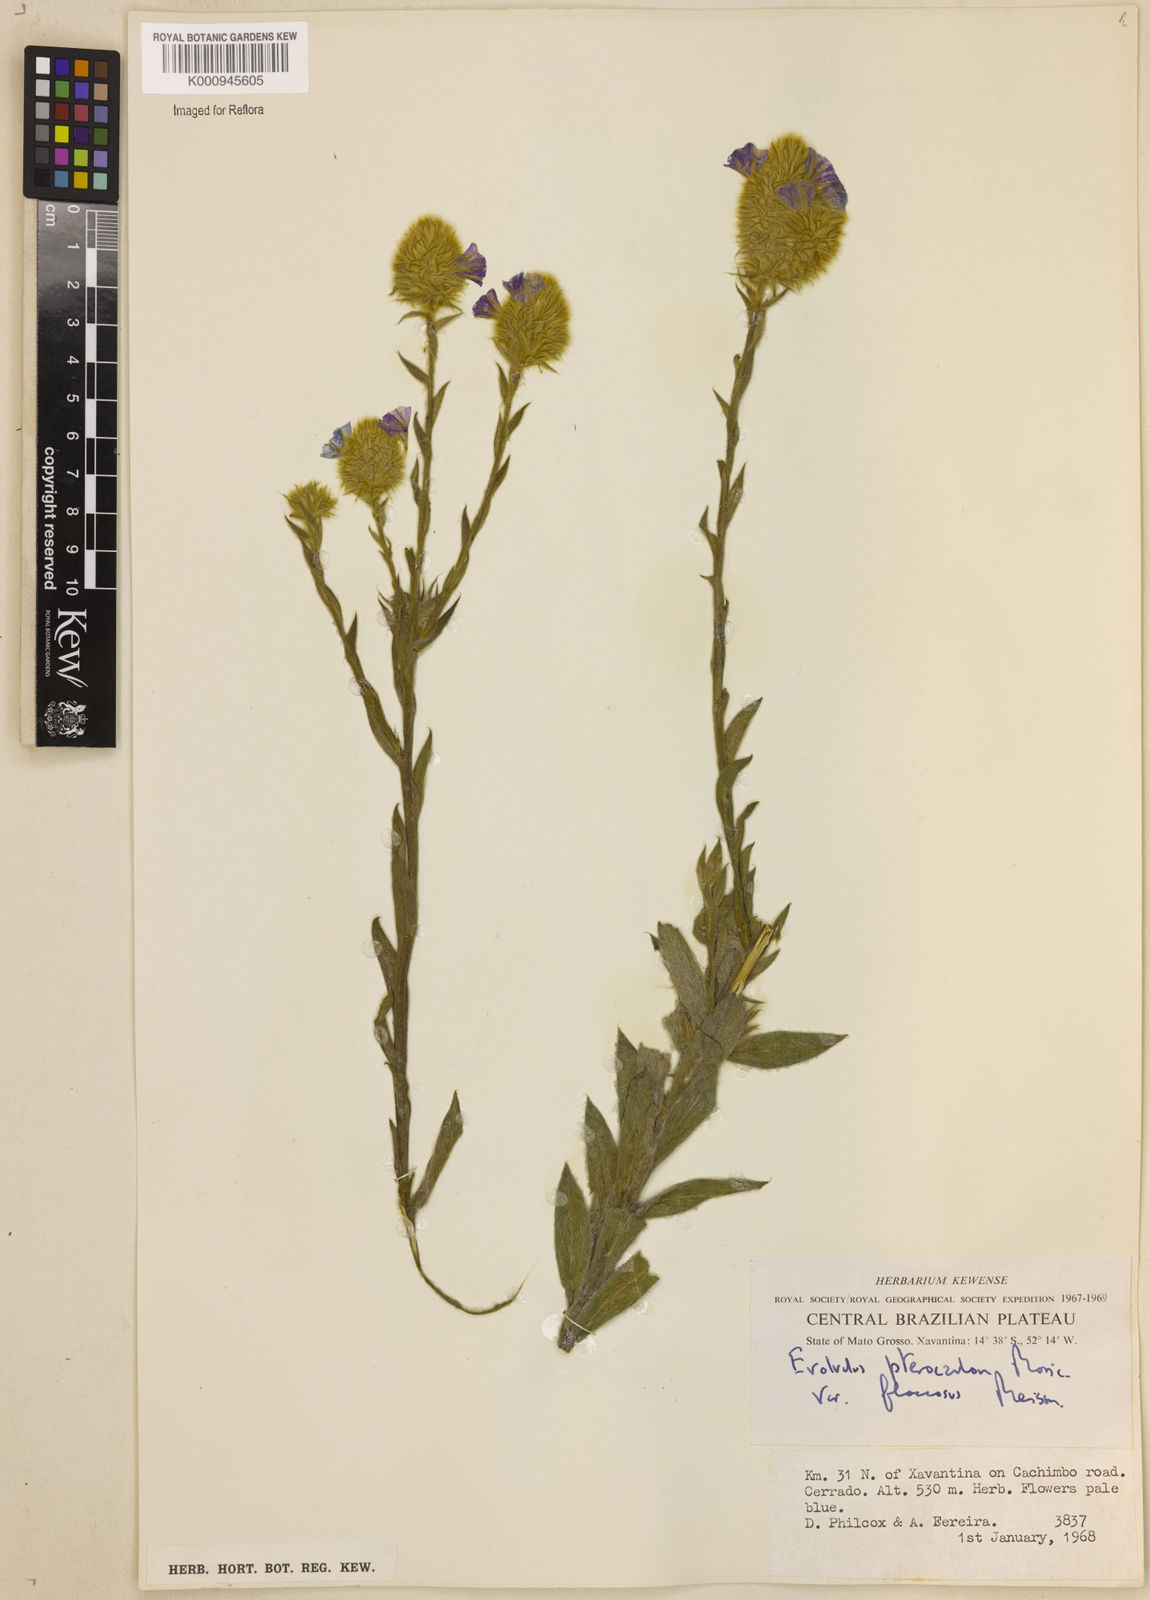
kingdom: Plantae
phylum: Tracheophyta
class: Magnoliopsida
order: Solanales
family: Convolvulaceae
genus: Evolvulus
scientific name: Evolvulus pterocaulon
